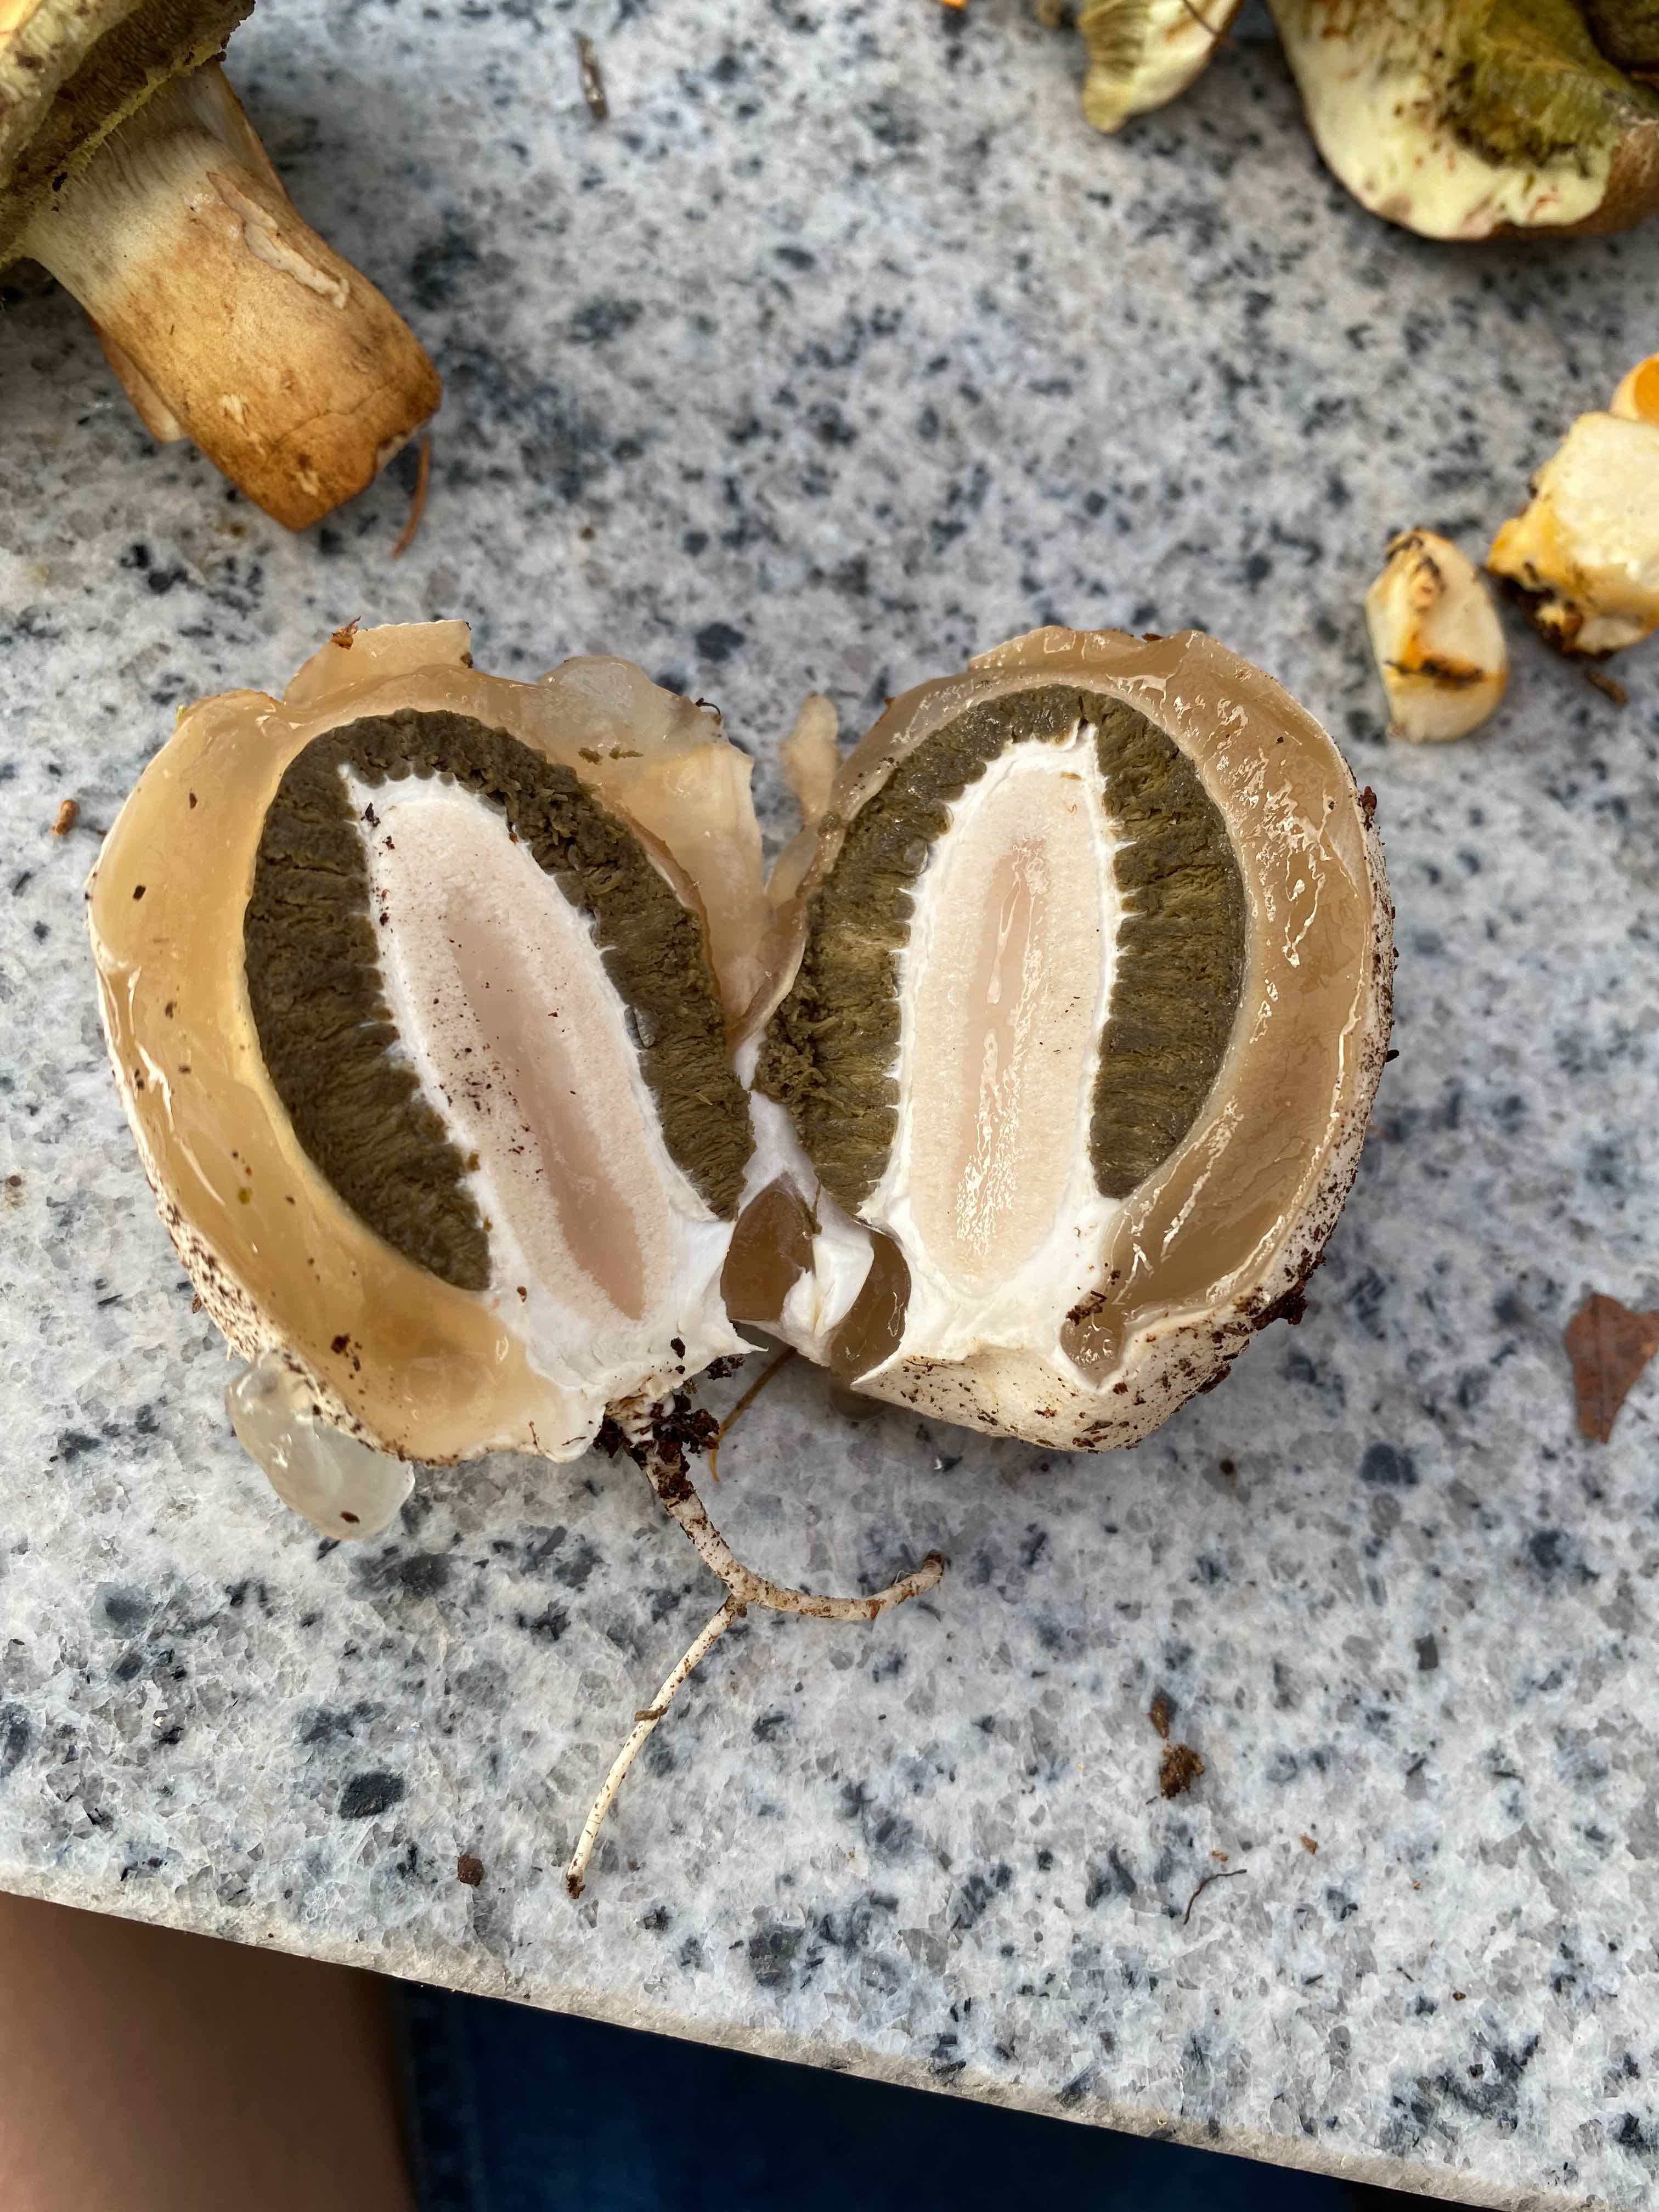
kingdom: Fungi
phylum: Basidiomycota
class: Agaricomycetes
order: Phallales
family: Phallaceae
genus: Phallus
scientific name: Phallus impudicus
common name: almindelig stinksvamp
